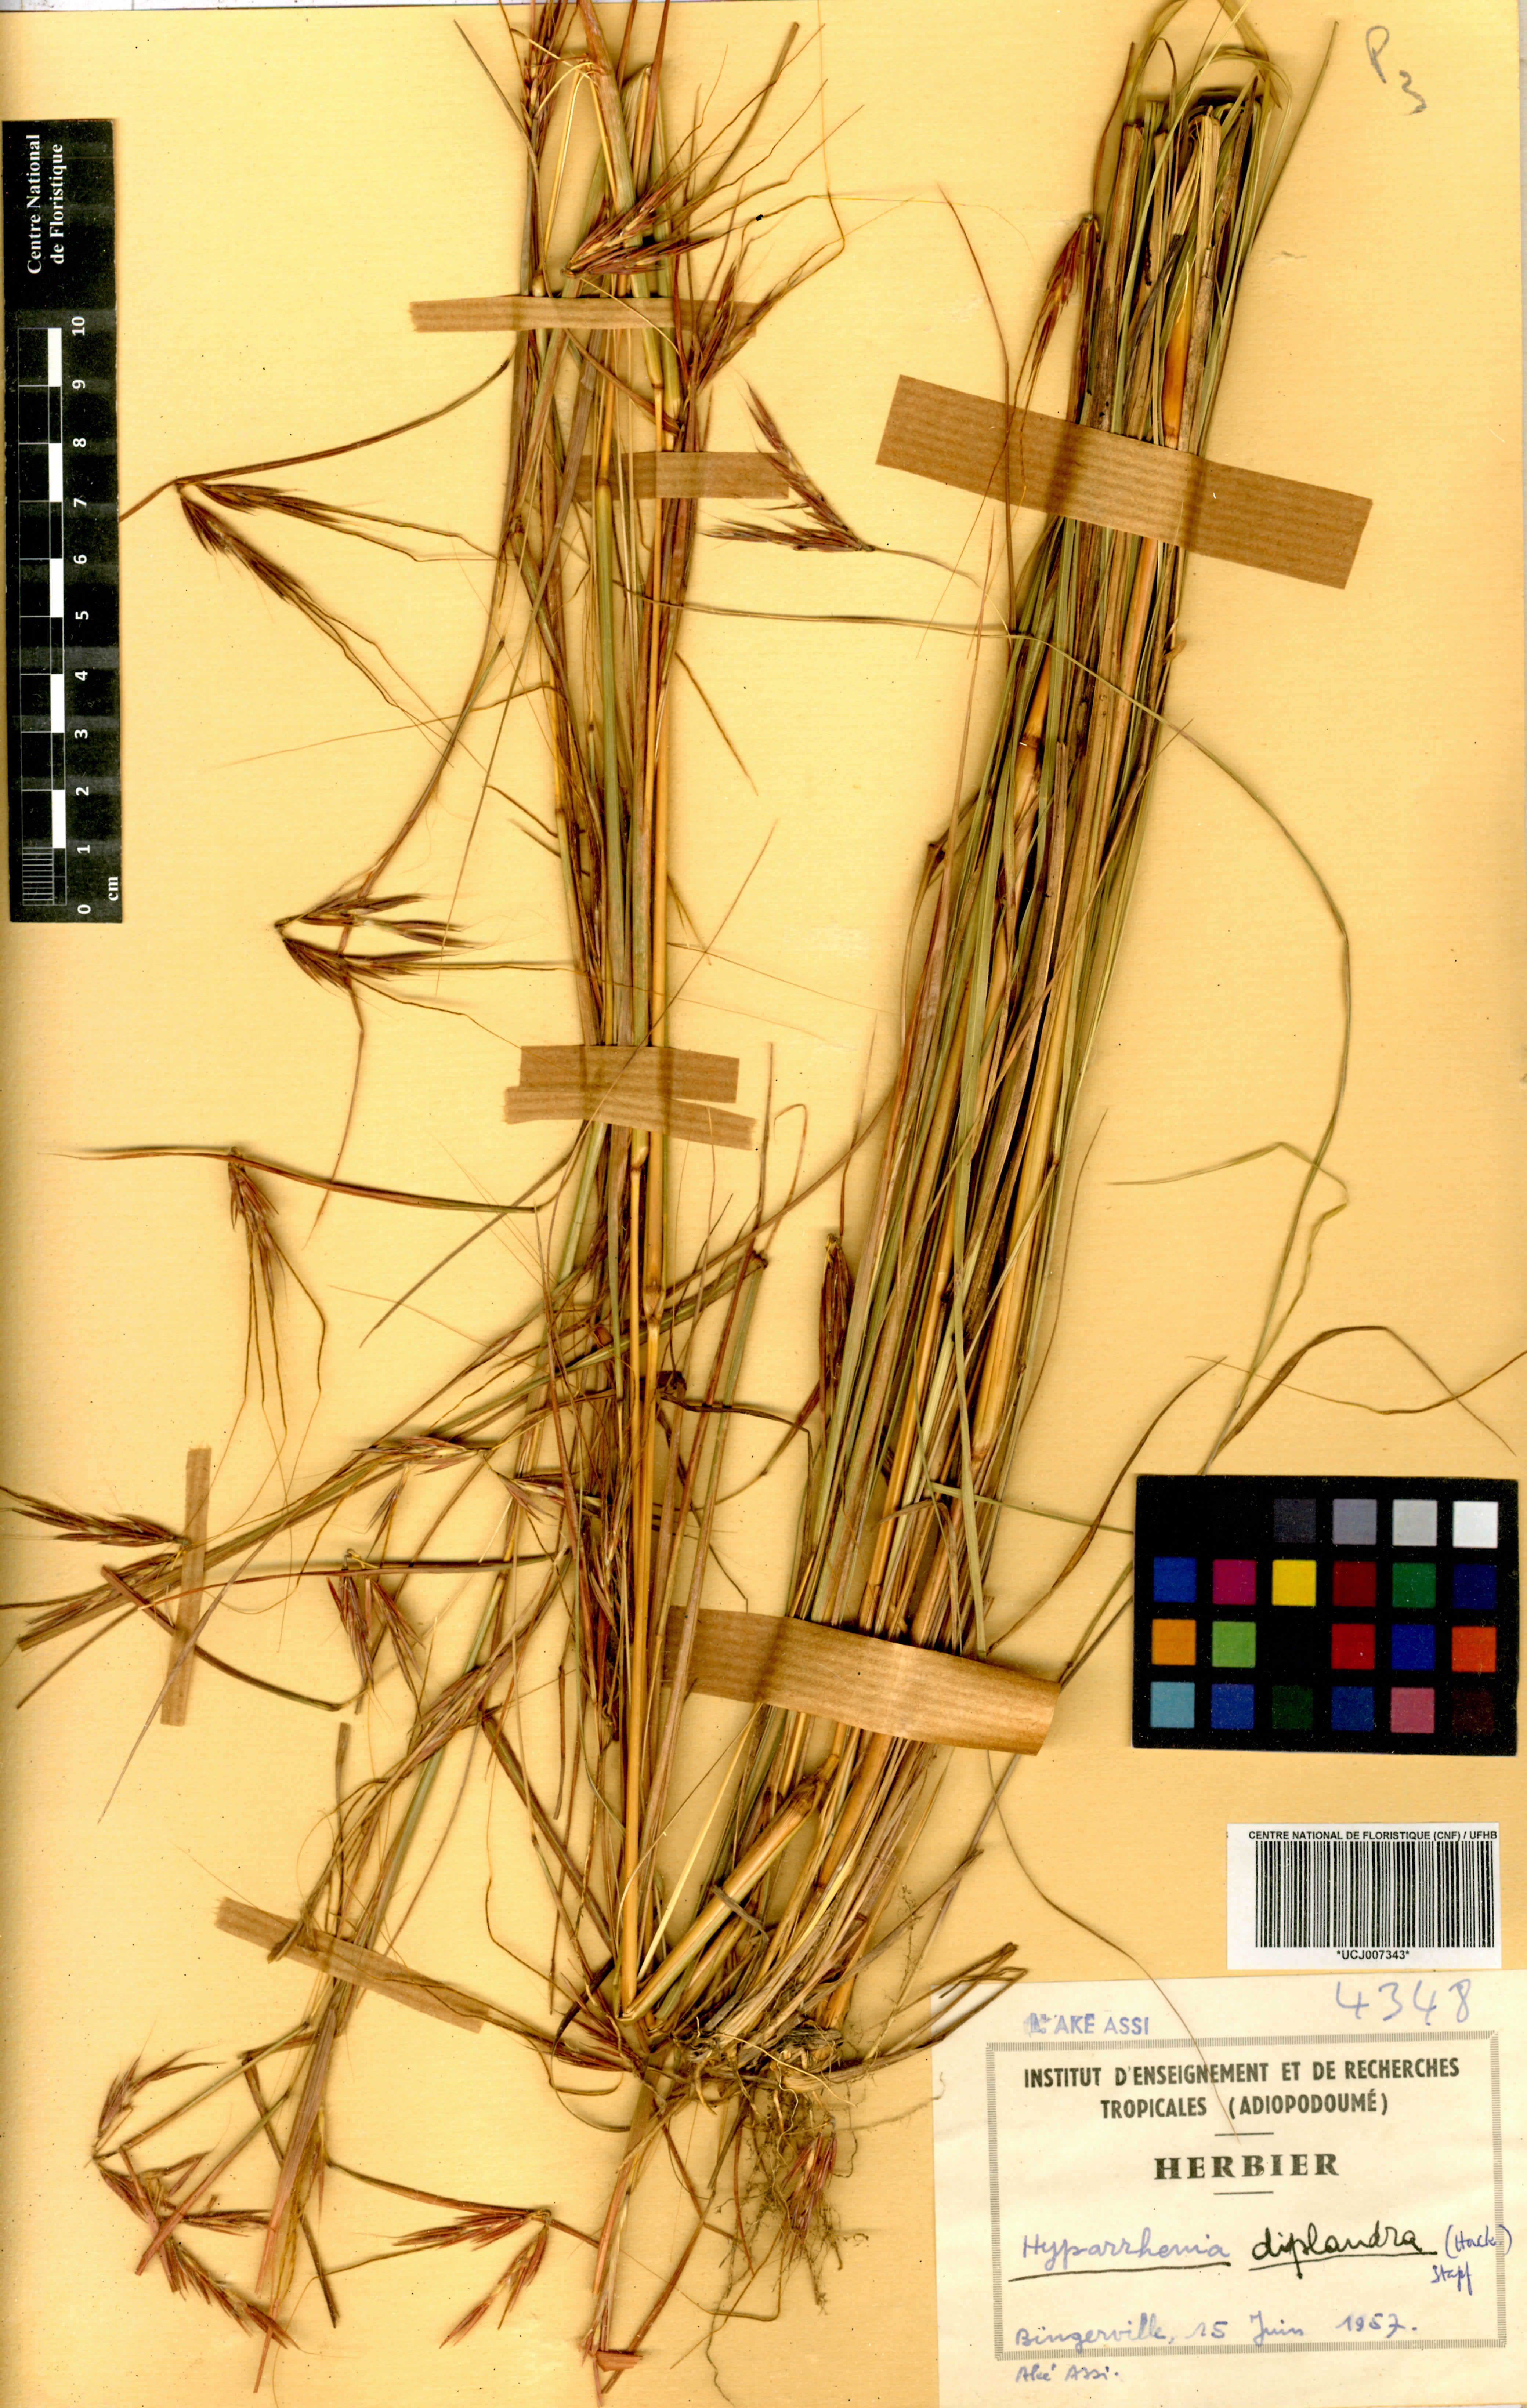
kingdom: Plantae
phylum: Tracheophyta
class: Liliopsida
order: Poales
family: Poaceae
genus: Hyparrhenia
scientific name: Hyparrhenia diplandra
